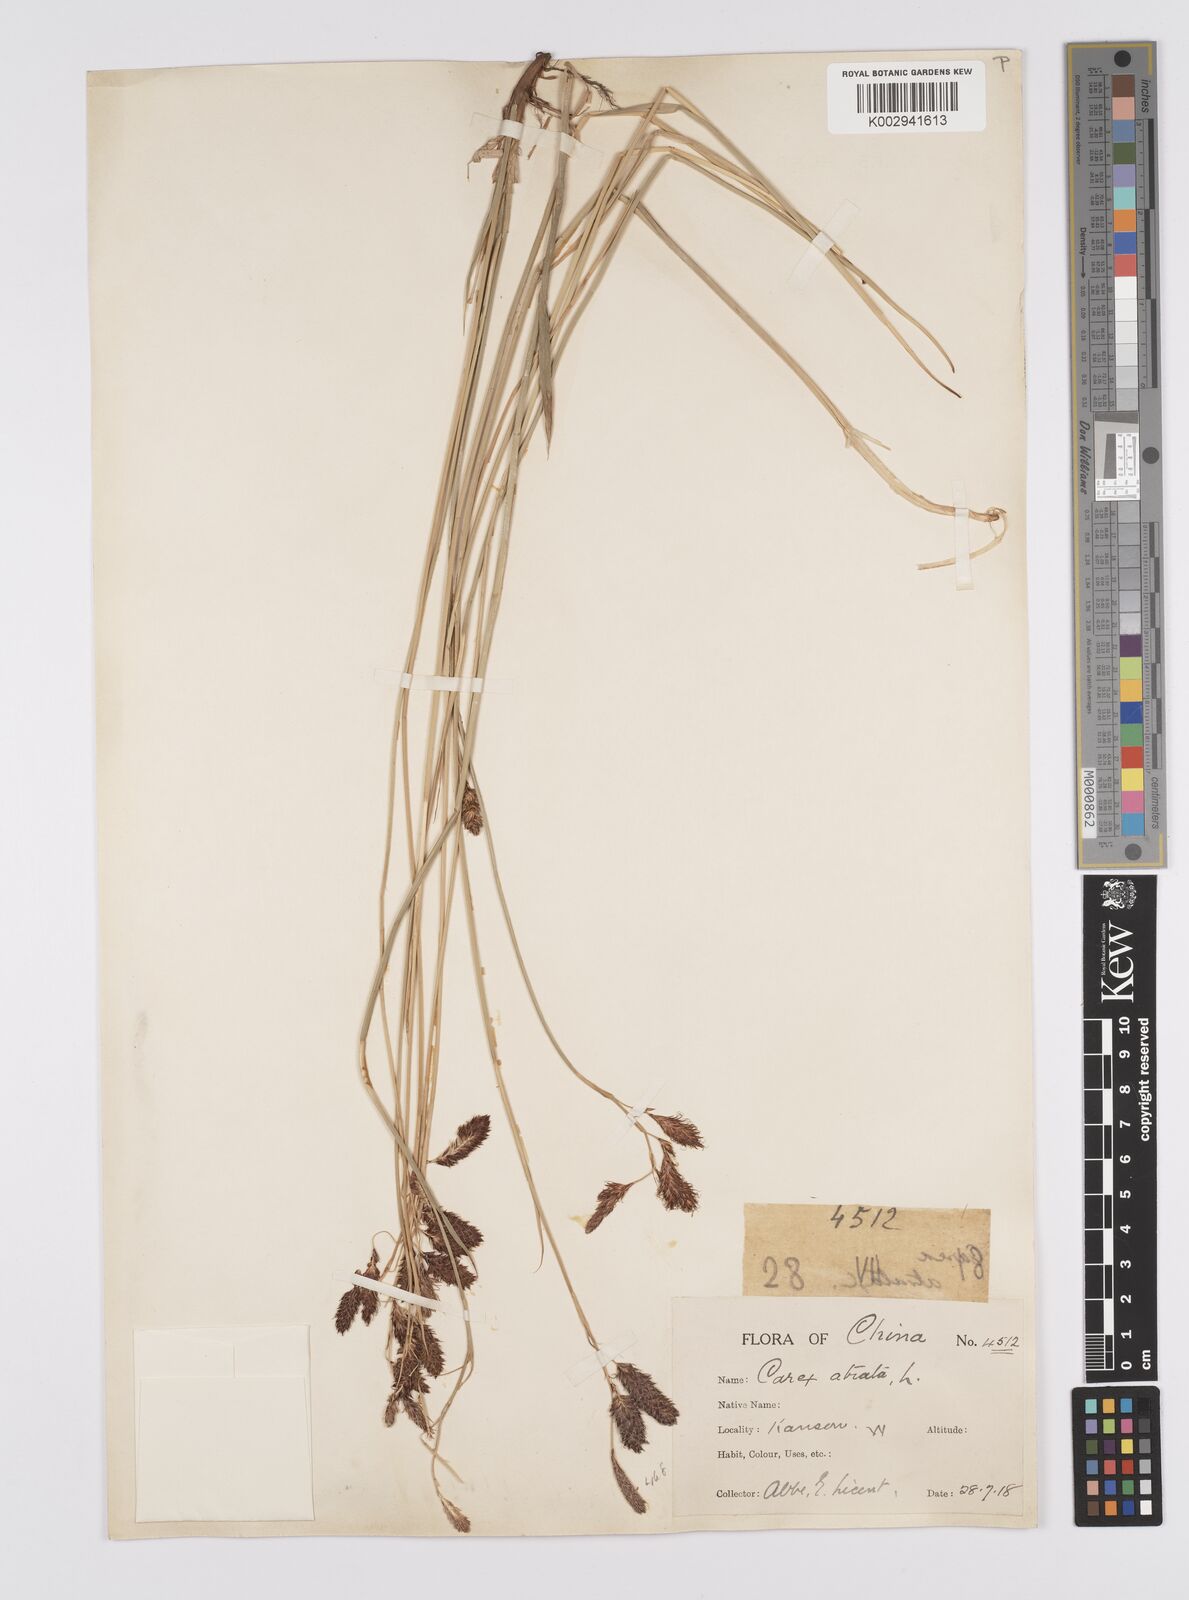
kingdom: Plantae
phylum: Tracheophyta
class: Liliopsida
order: Poales
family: Cyperaceae
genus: Carex
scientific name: Carex atrofusca
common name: Scorched alpine-sedge
